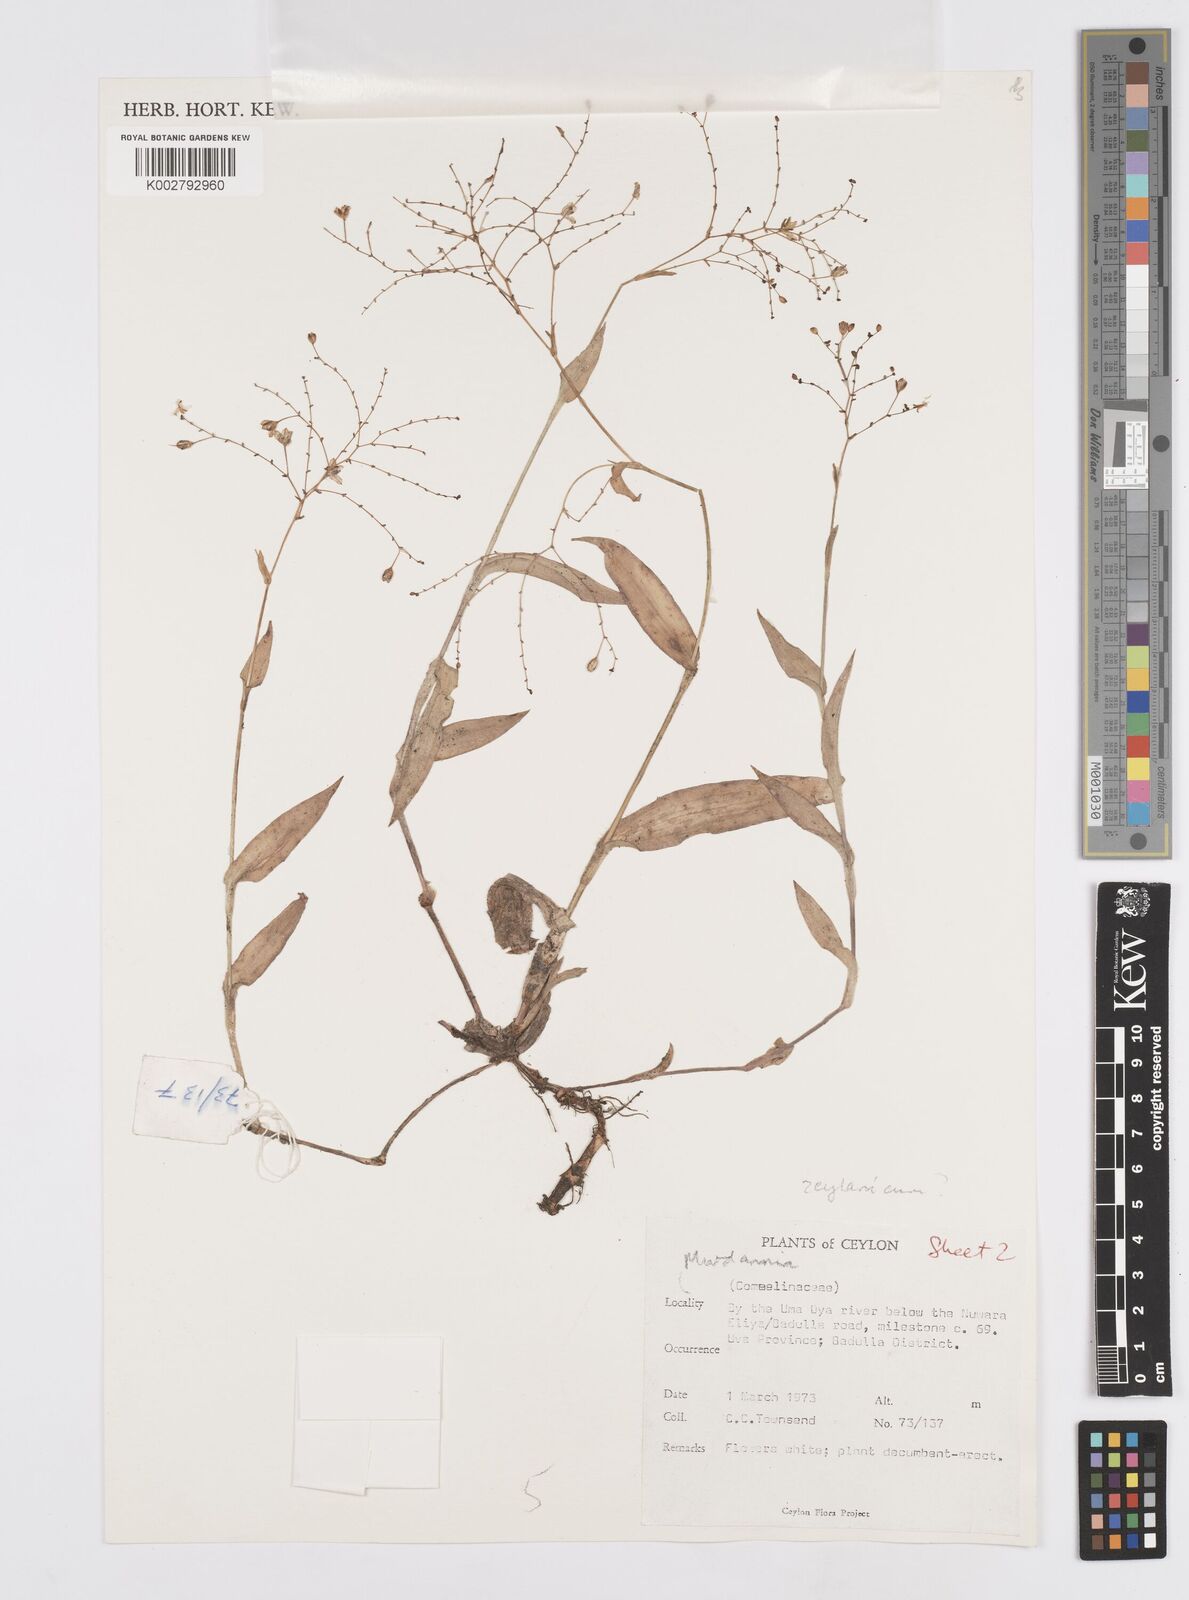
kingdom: Plantae
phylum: Tracheophyta
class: Liliopsida
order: Commelinales
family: Commelinaceae
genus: Murdannia
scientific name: Murdannia zeylanica
